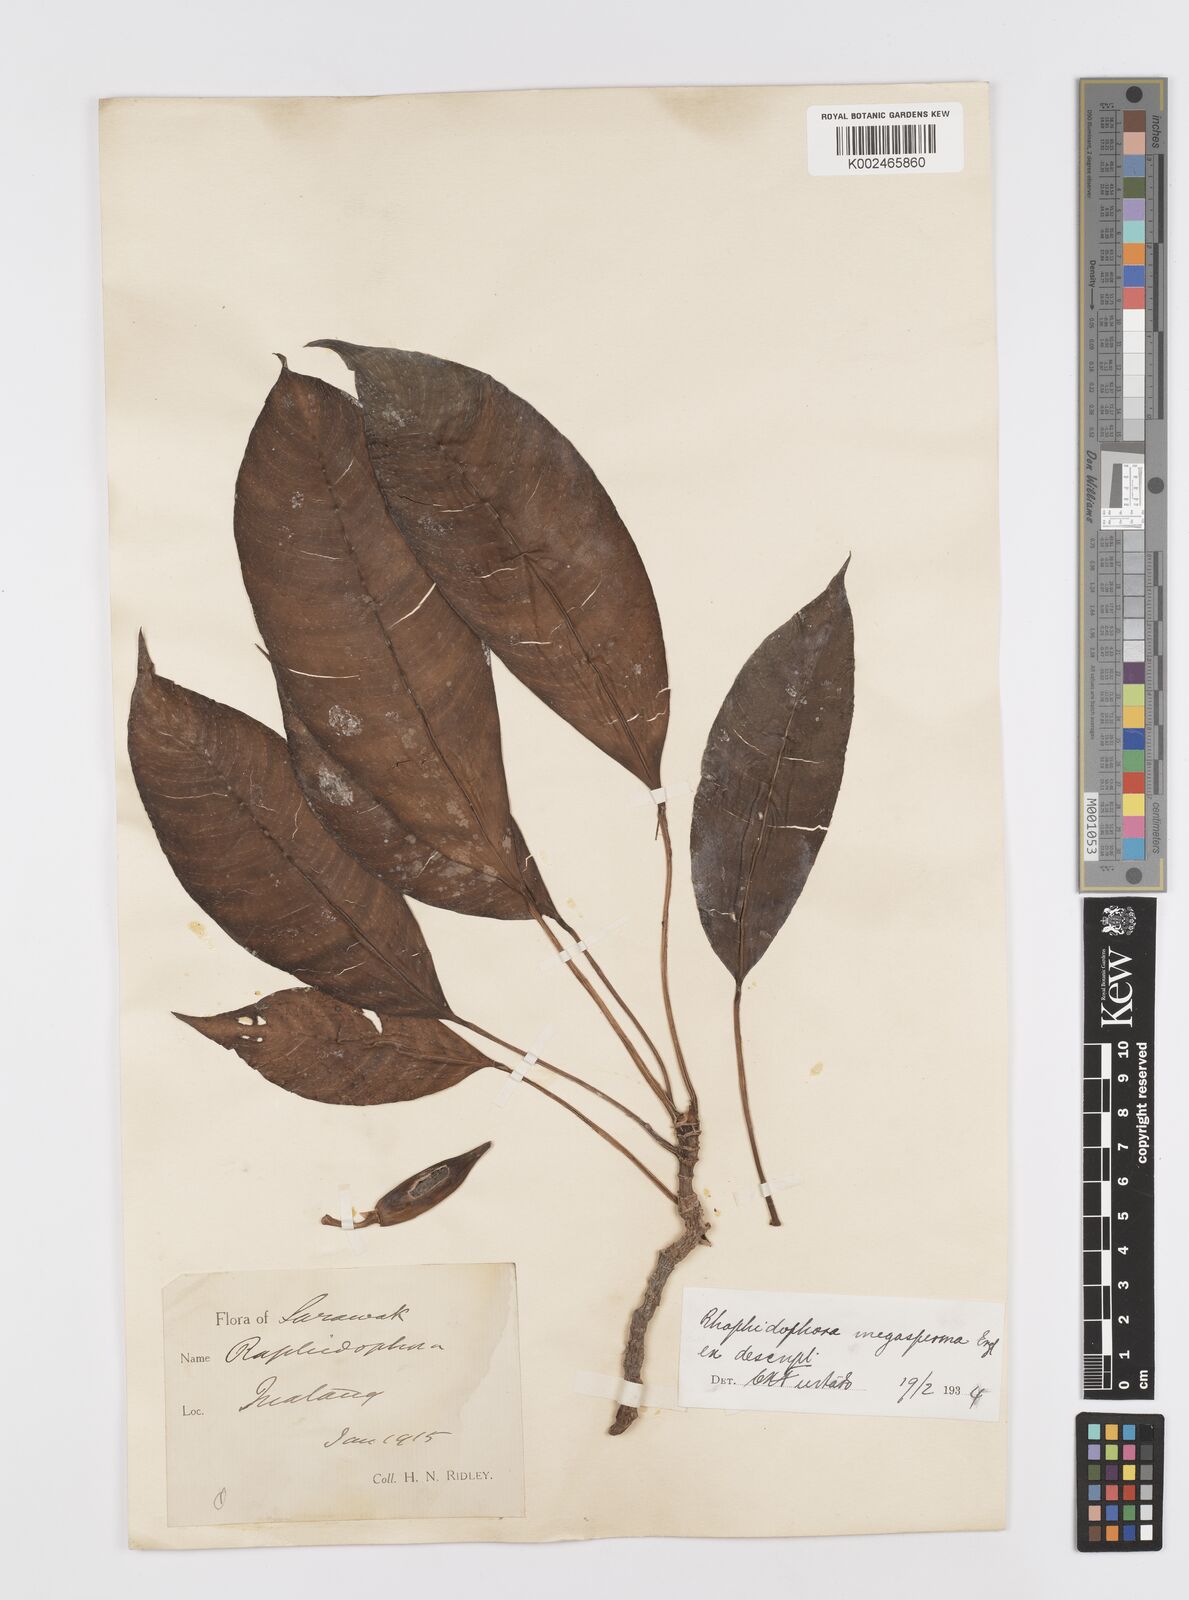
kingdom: Plantae
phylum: Tracheophyta
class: Liliopsida
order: Alismatales
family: Araceae
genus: Rhaphidophora
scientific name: Rhaphidophora
